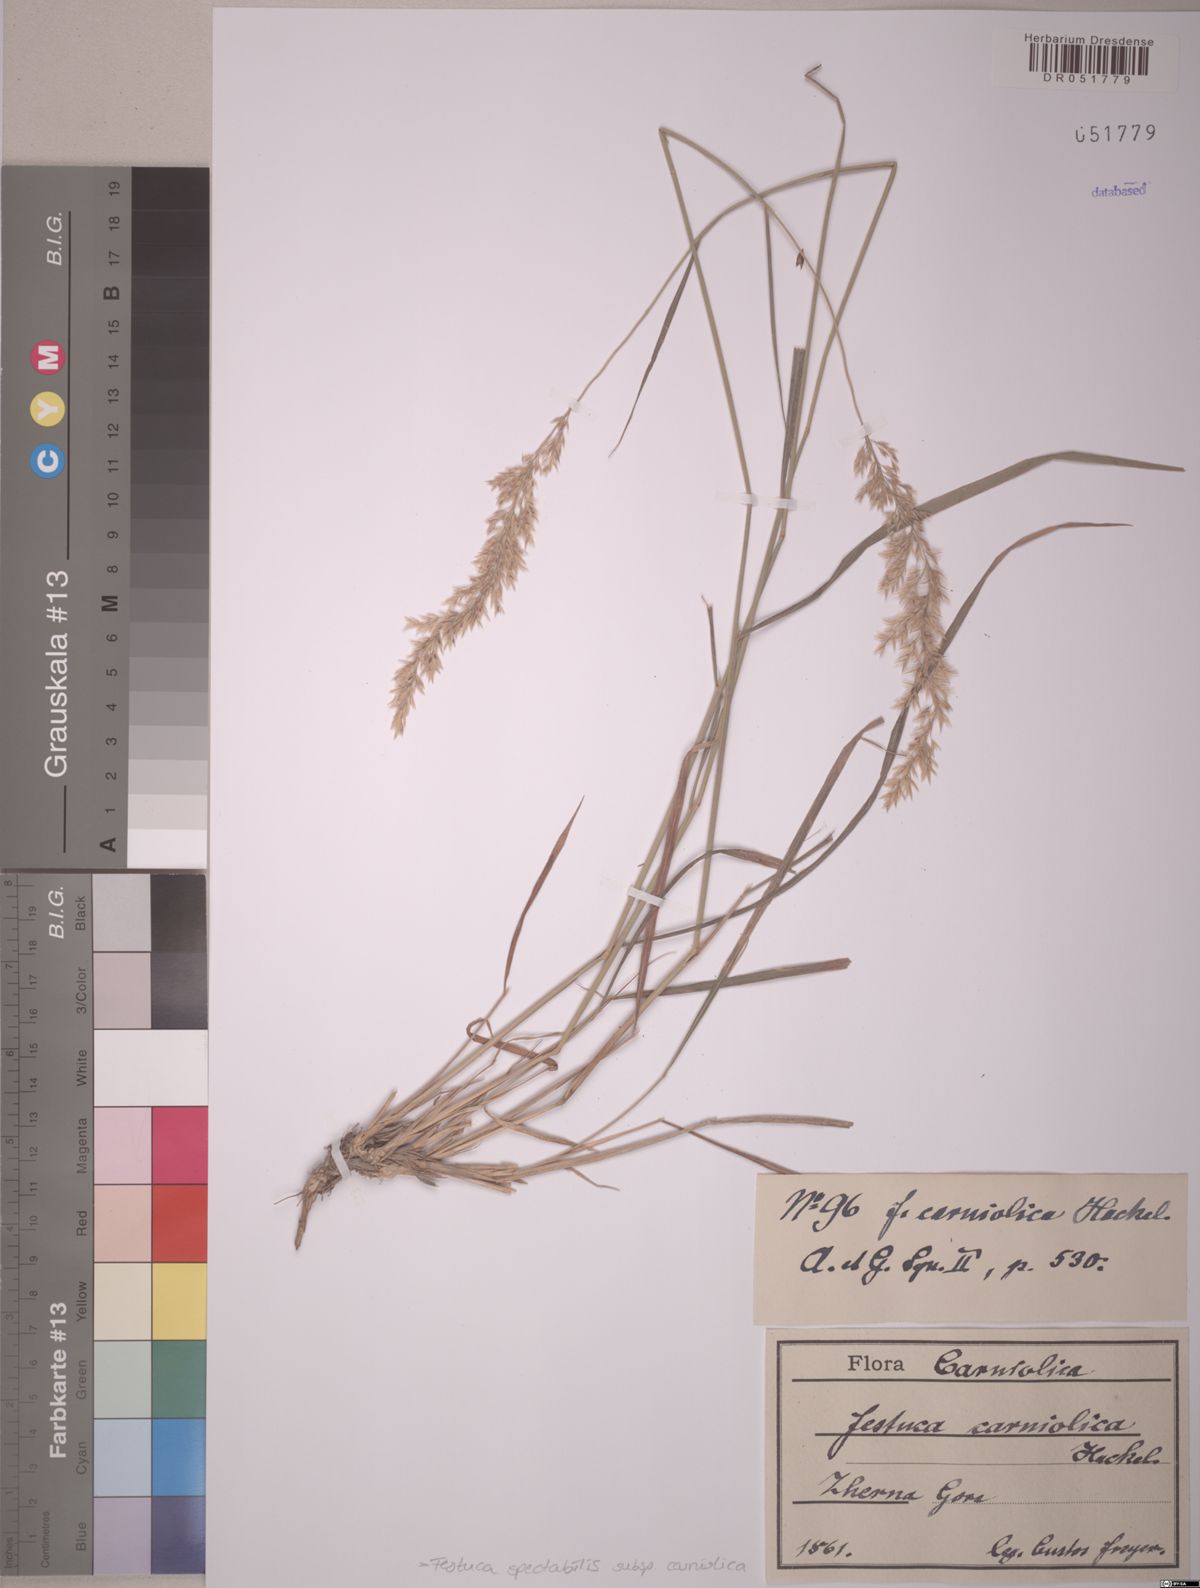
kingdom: Plantae
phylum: Tracheophyta
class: Liliopsida
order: Poales
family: Poaceae
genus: Festuca
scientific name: Festuca spectabilis
